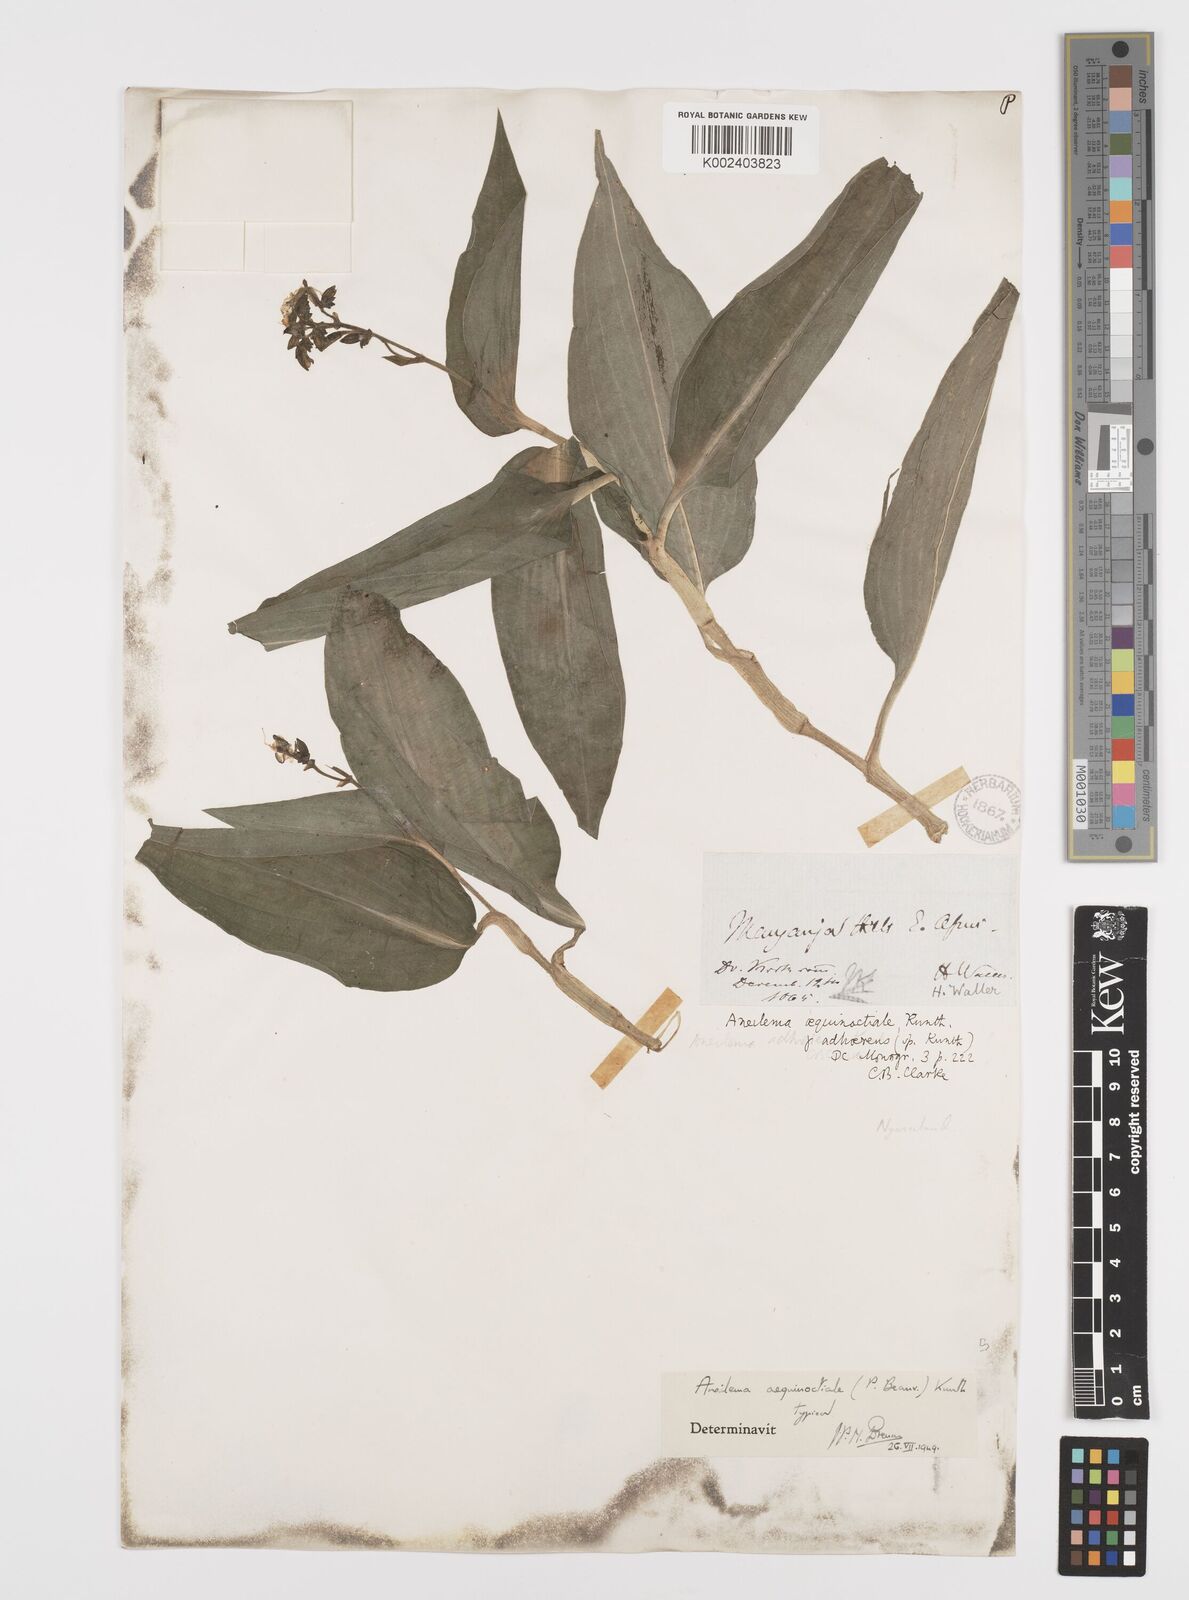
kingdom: Plantae
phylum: Tracheophyta
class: Liliopsida
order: Commelinales
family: Commelinaceae
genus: Aneilema
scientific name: Aneilema aequinoctiale
